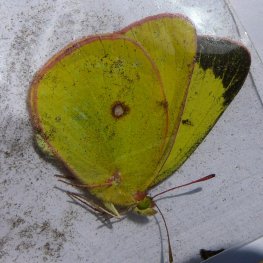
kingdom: Animalia
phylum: Arthropoda
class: Insecta
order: Lepidoptera
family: Pieridae
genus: Colias
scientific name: Colias interior
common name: Pink-edged Sulphur
